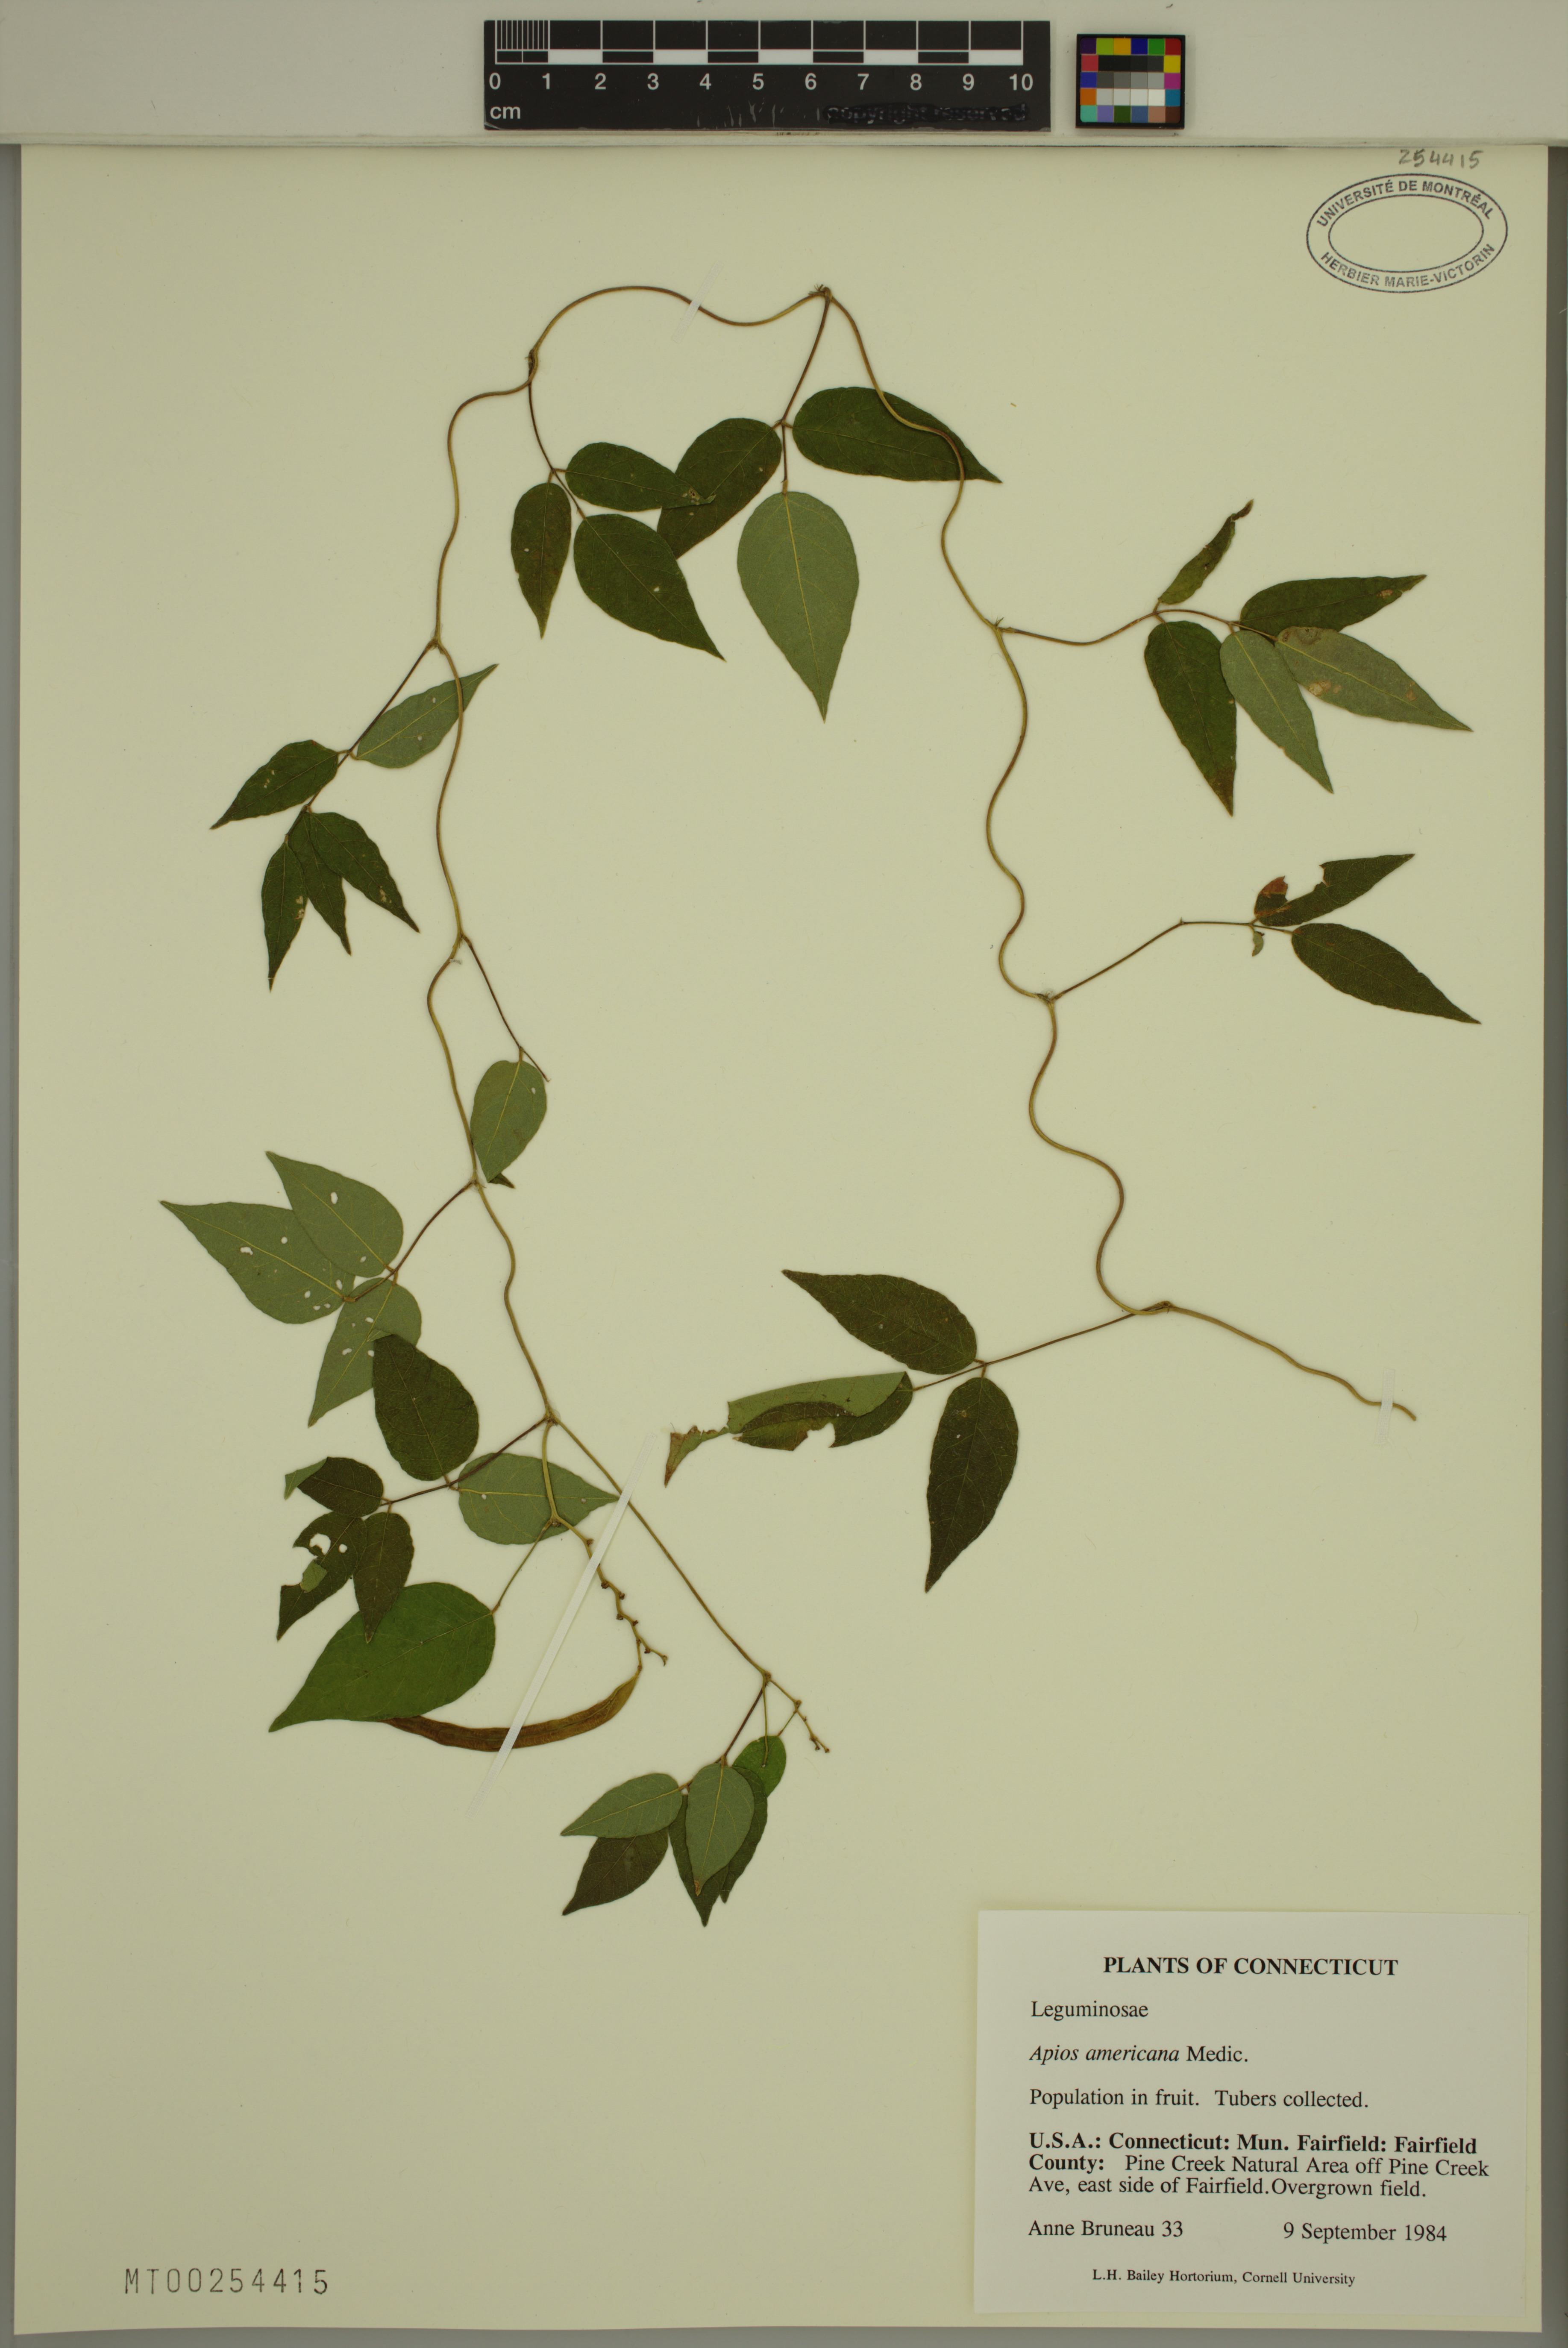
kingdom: Plantae
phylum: Tracheophyta
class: Magnoliopsida
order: Fabales
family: Fabaceae
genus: Apios
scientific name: Apios americana
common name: American potato-bean
